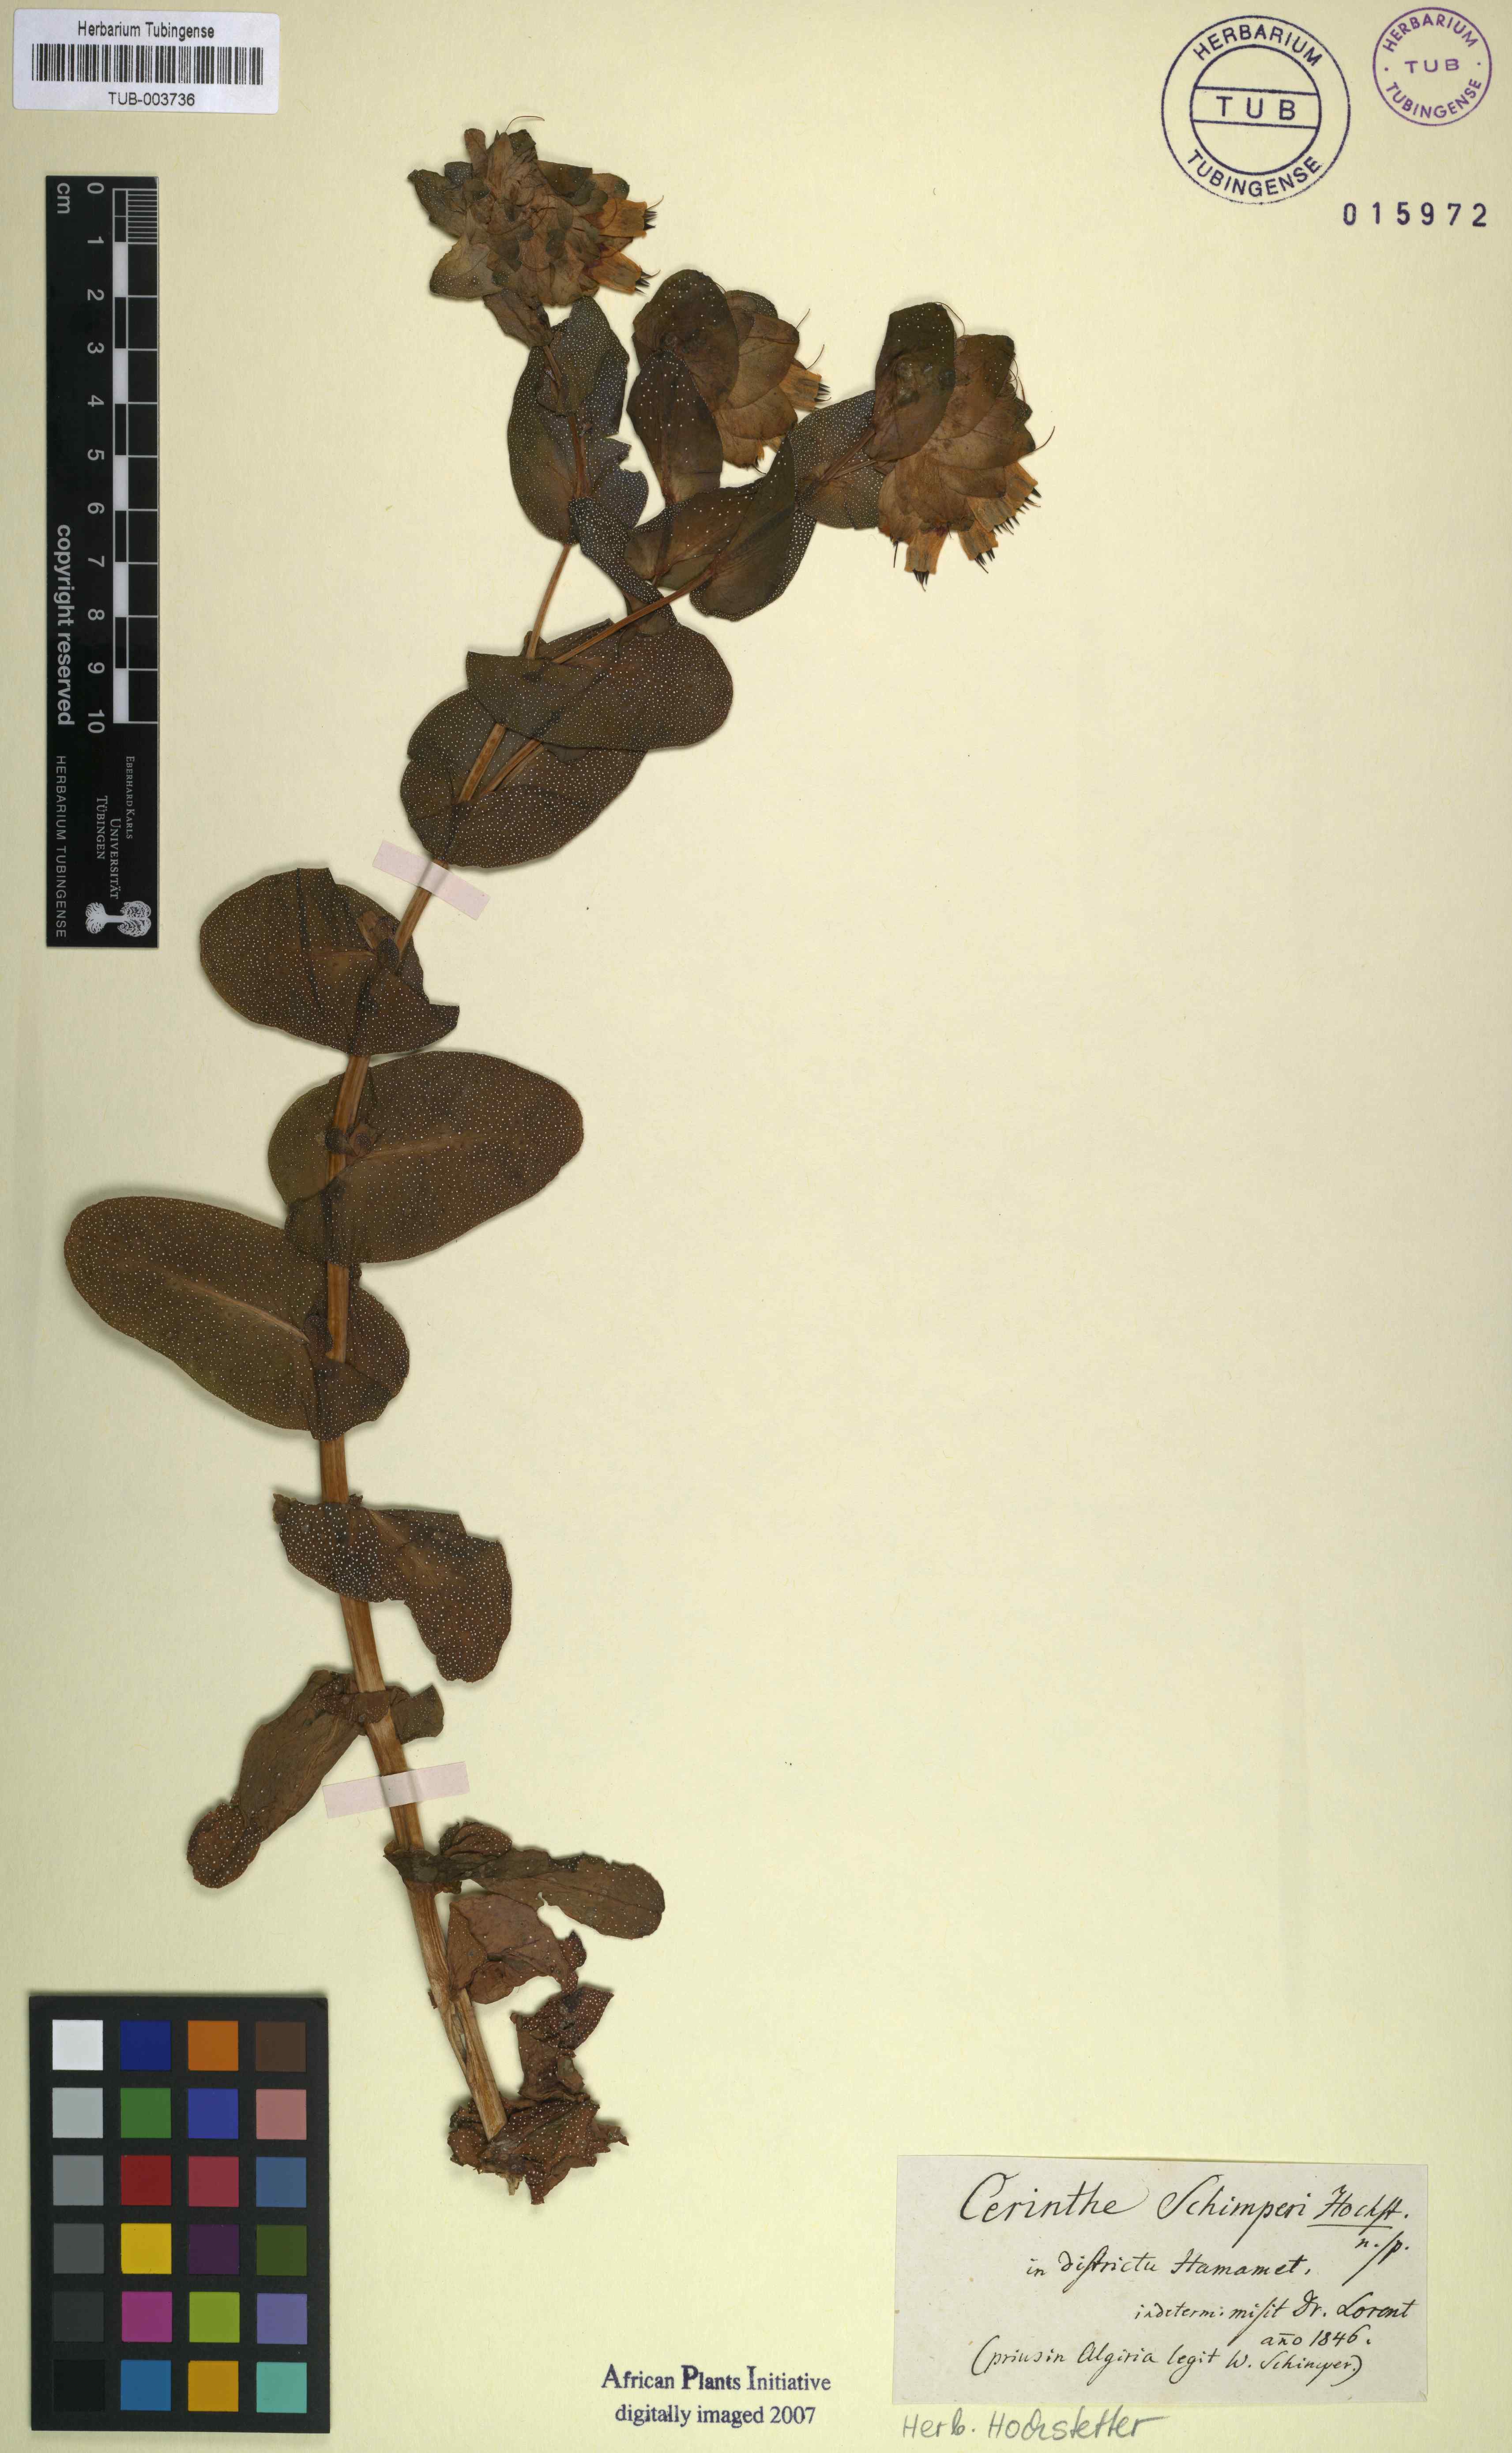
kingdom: Plantae
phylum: Tracheophyta
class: Magnoliopsida
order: Boraginales
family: Boraginaceae
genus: Cerinthe
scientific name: Cerinthe
